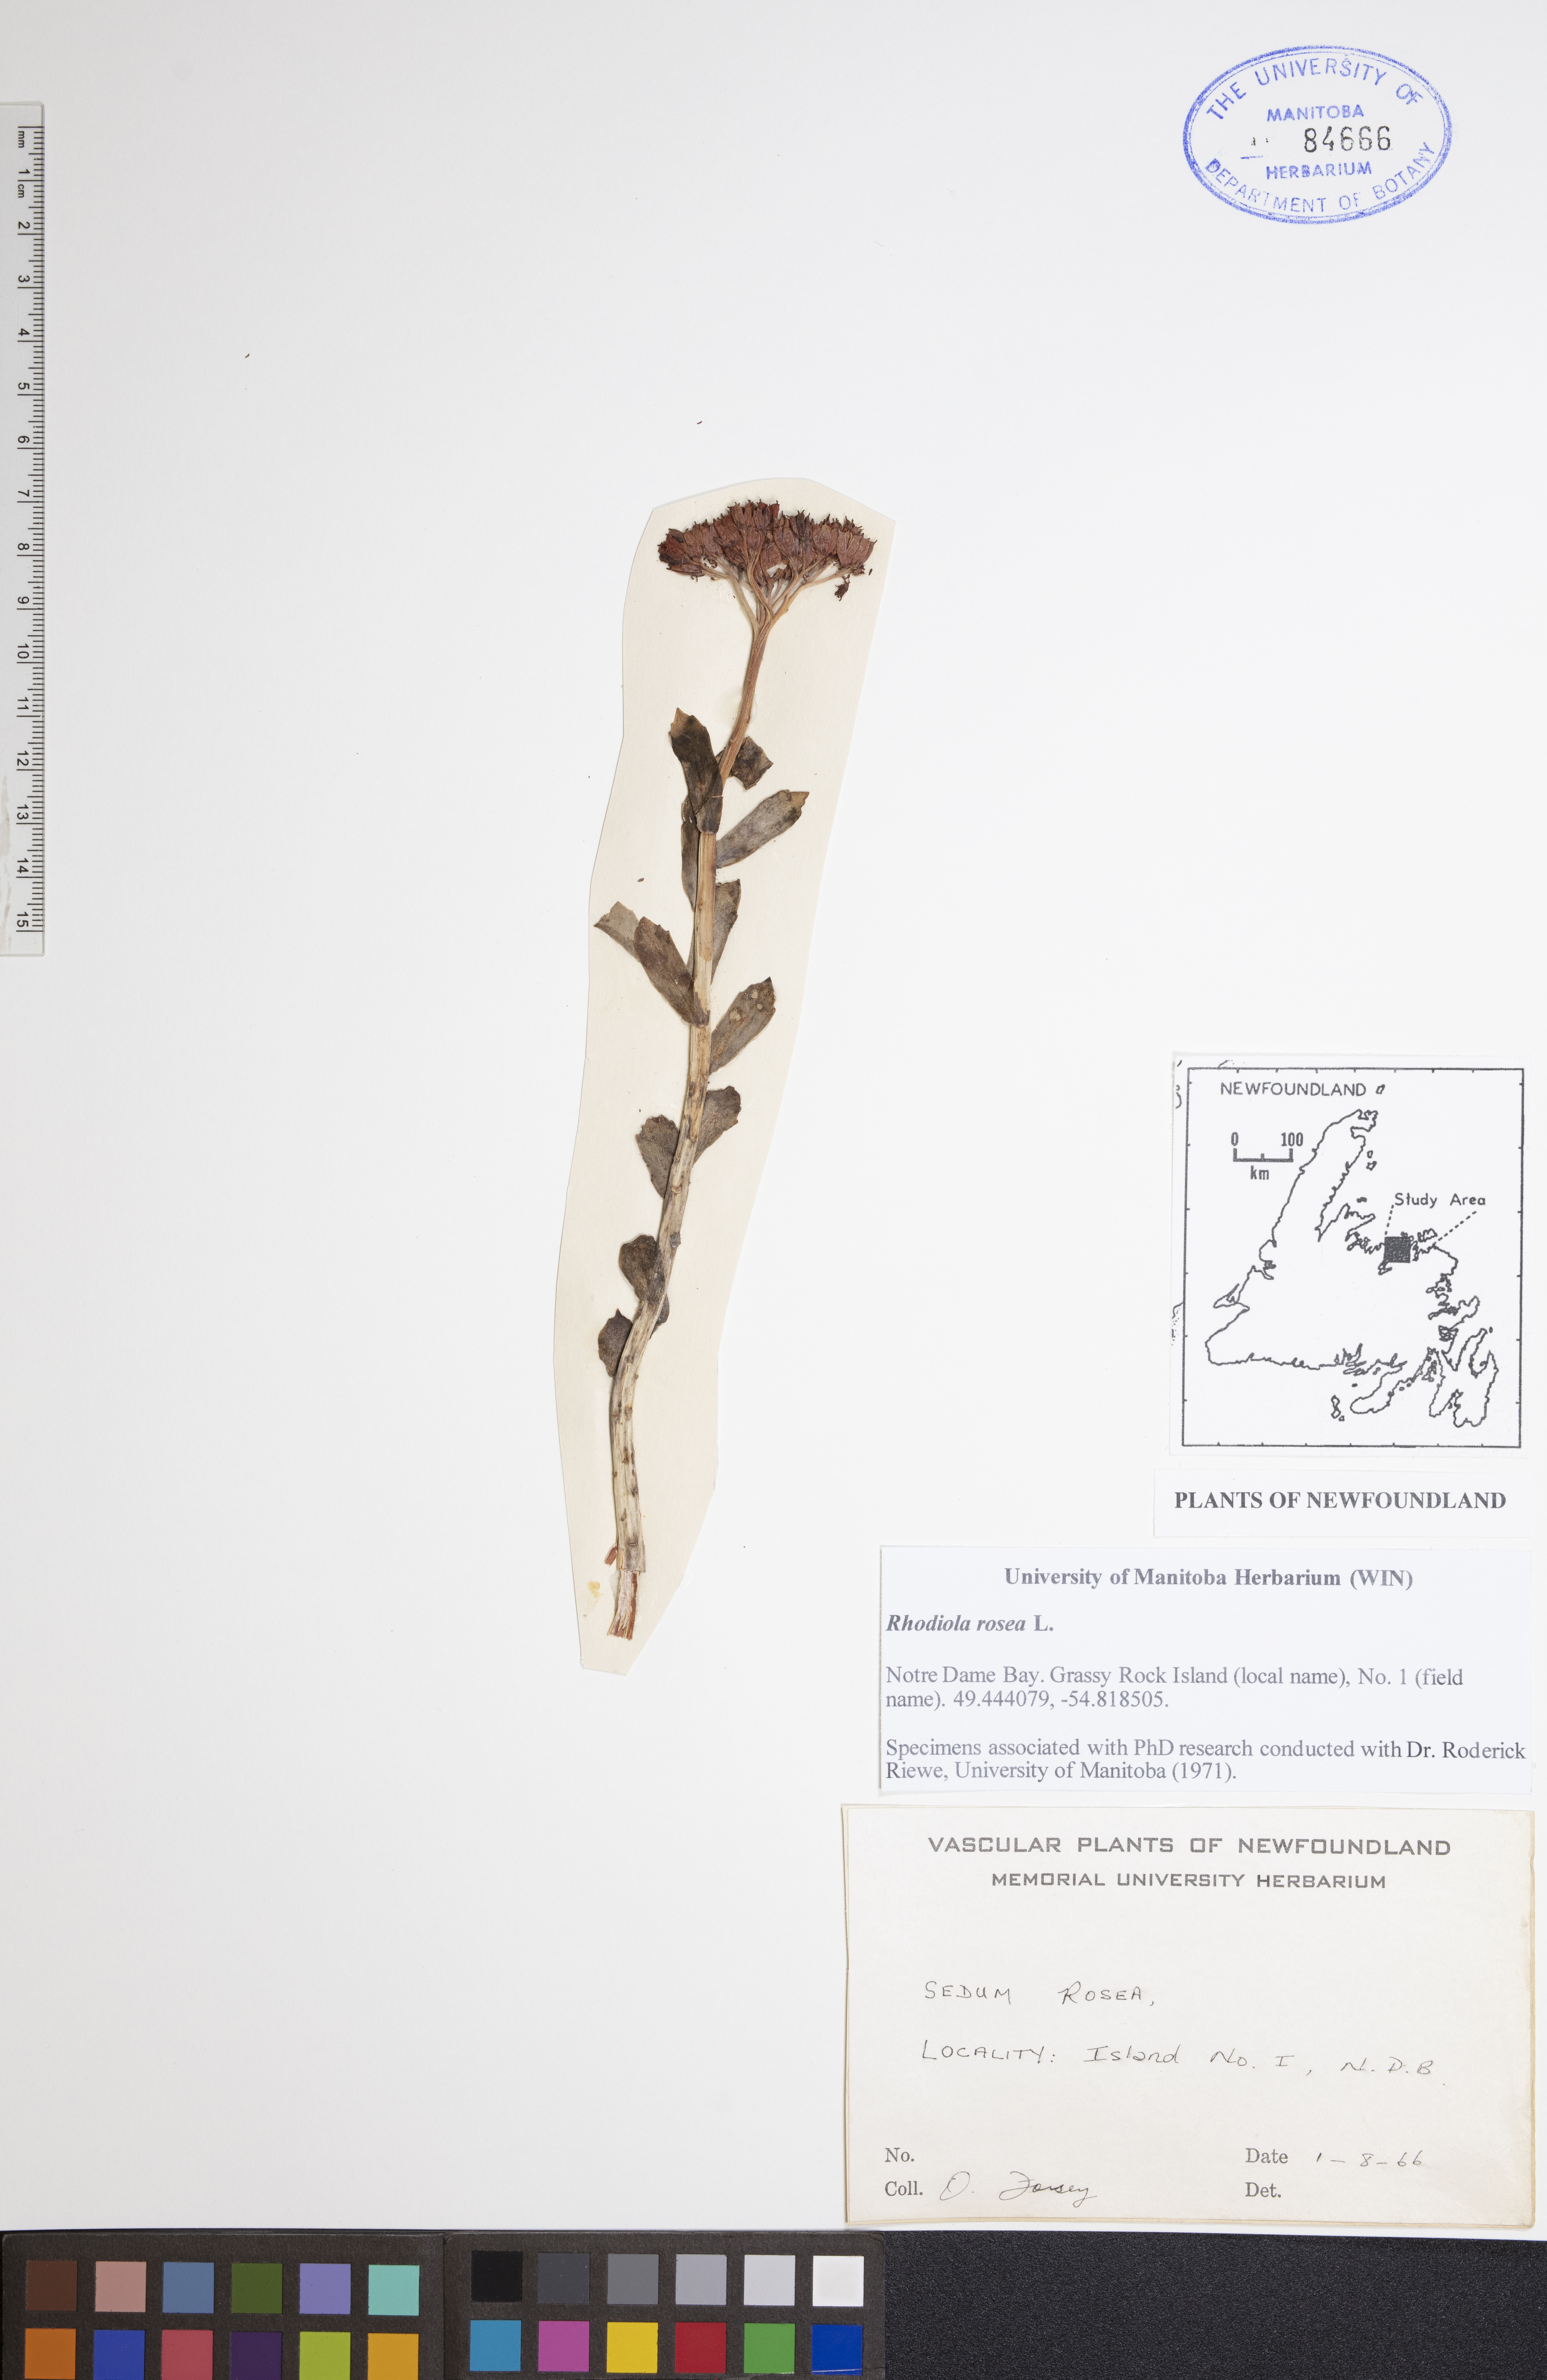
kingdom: Plantae
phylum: Tracheophyta
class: Magnoliopsida
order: Saxifragales
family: Crassulaceae
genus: Rhodiola
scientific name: Rhodiola rosea
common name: Roseroot
